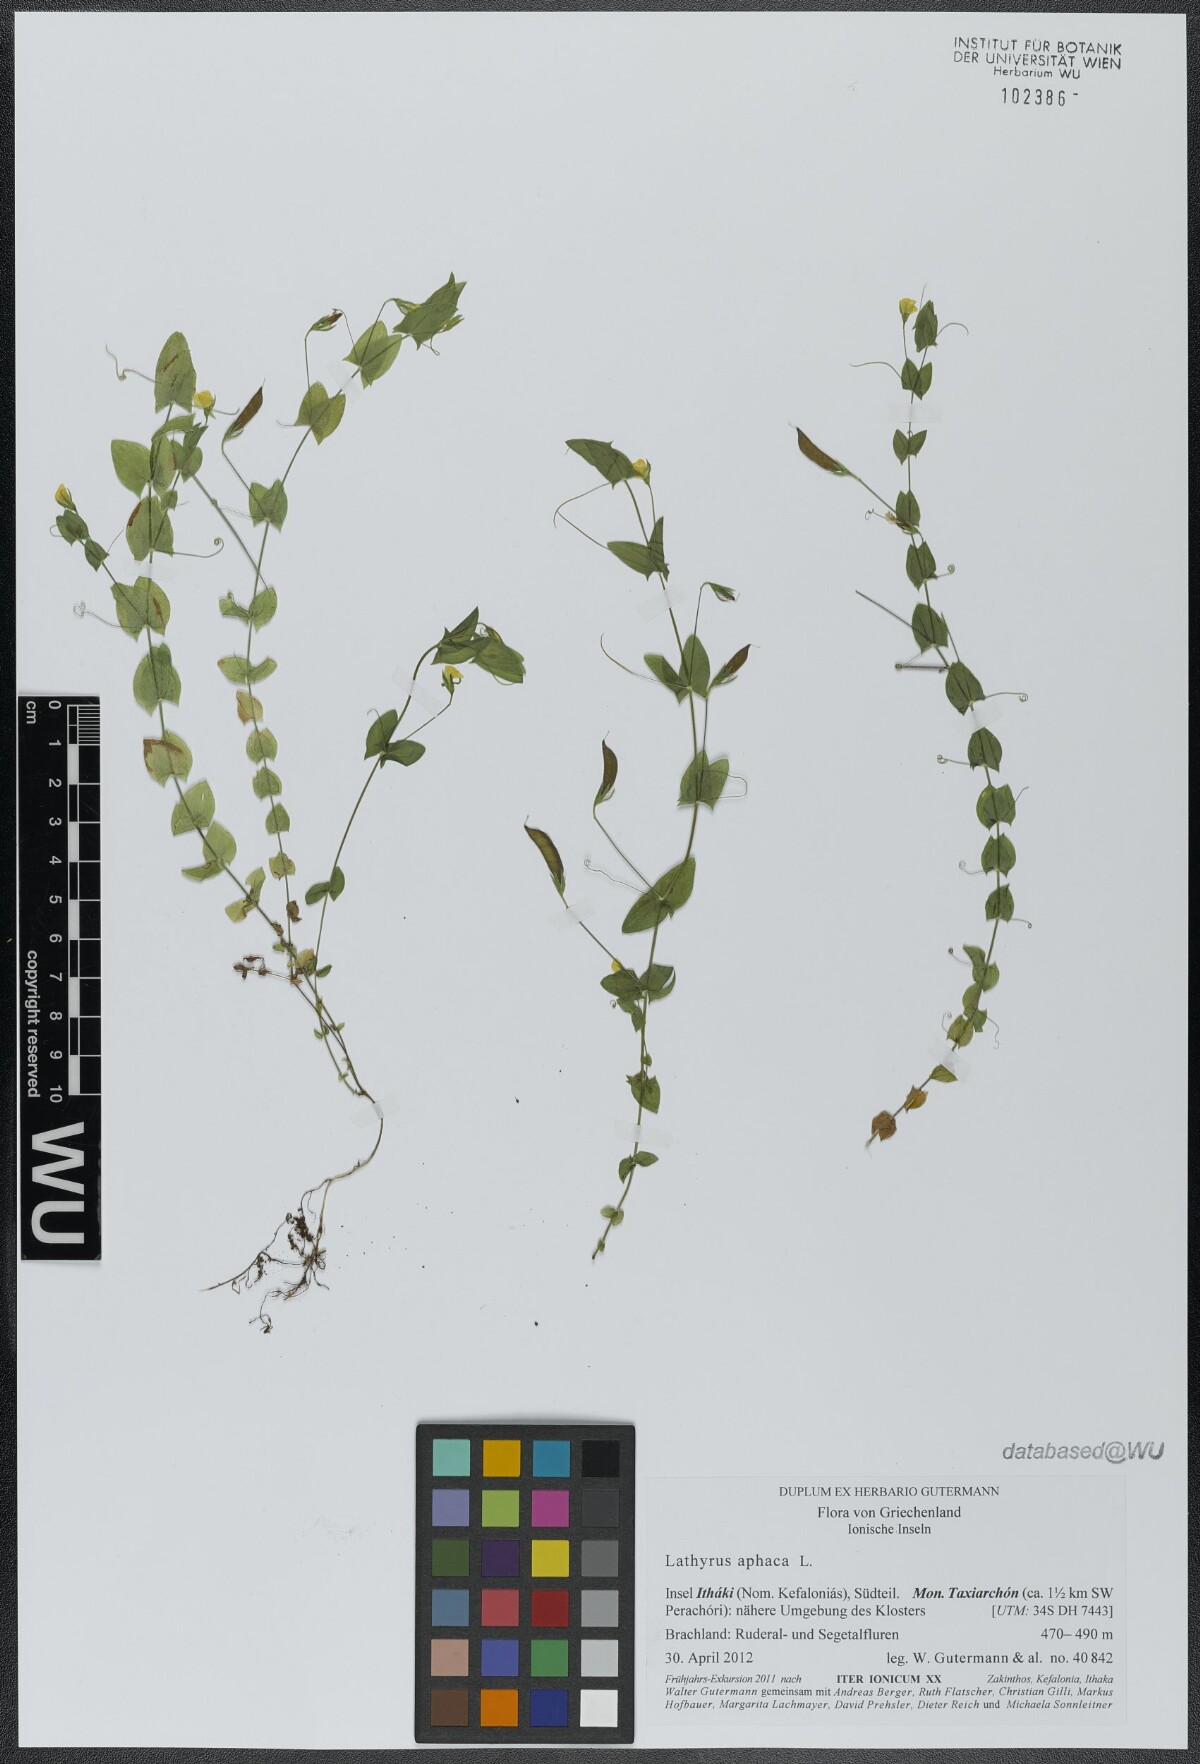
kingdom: Plantae
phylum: Tracheophyta
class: Magnoliopsida
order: Fabales
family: Fabaceae
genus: Lathyrus
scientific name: Lathyrus aphaca
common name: Yellow vetchling
